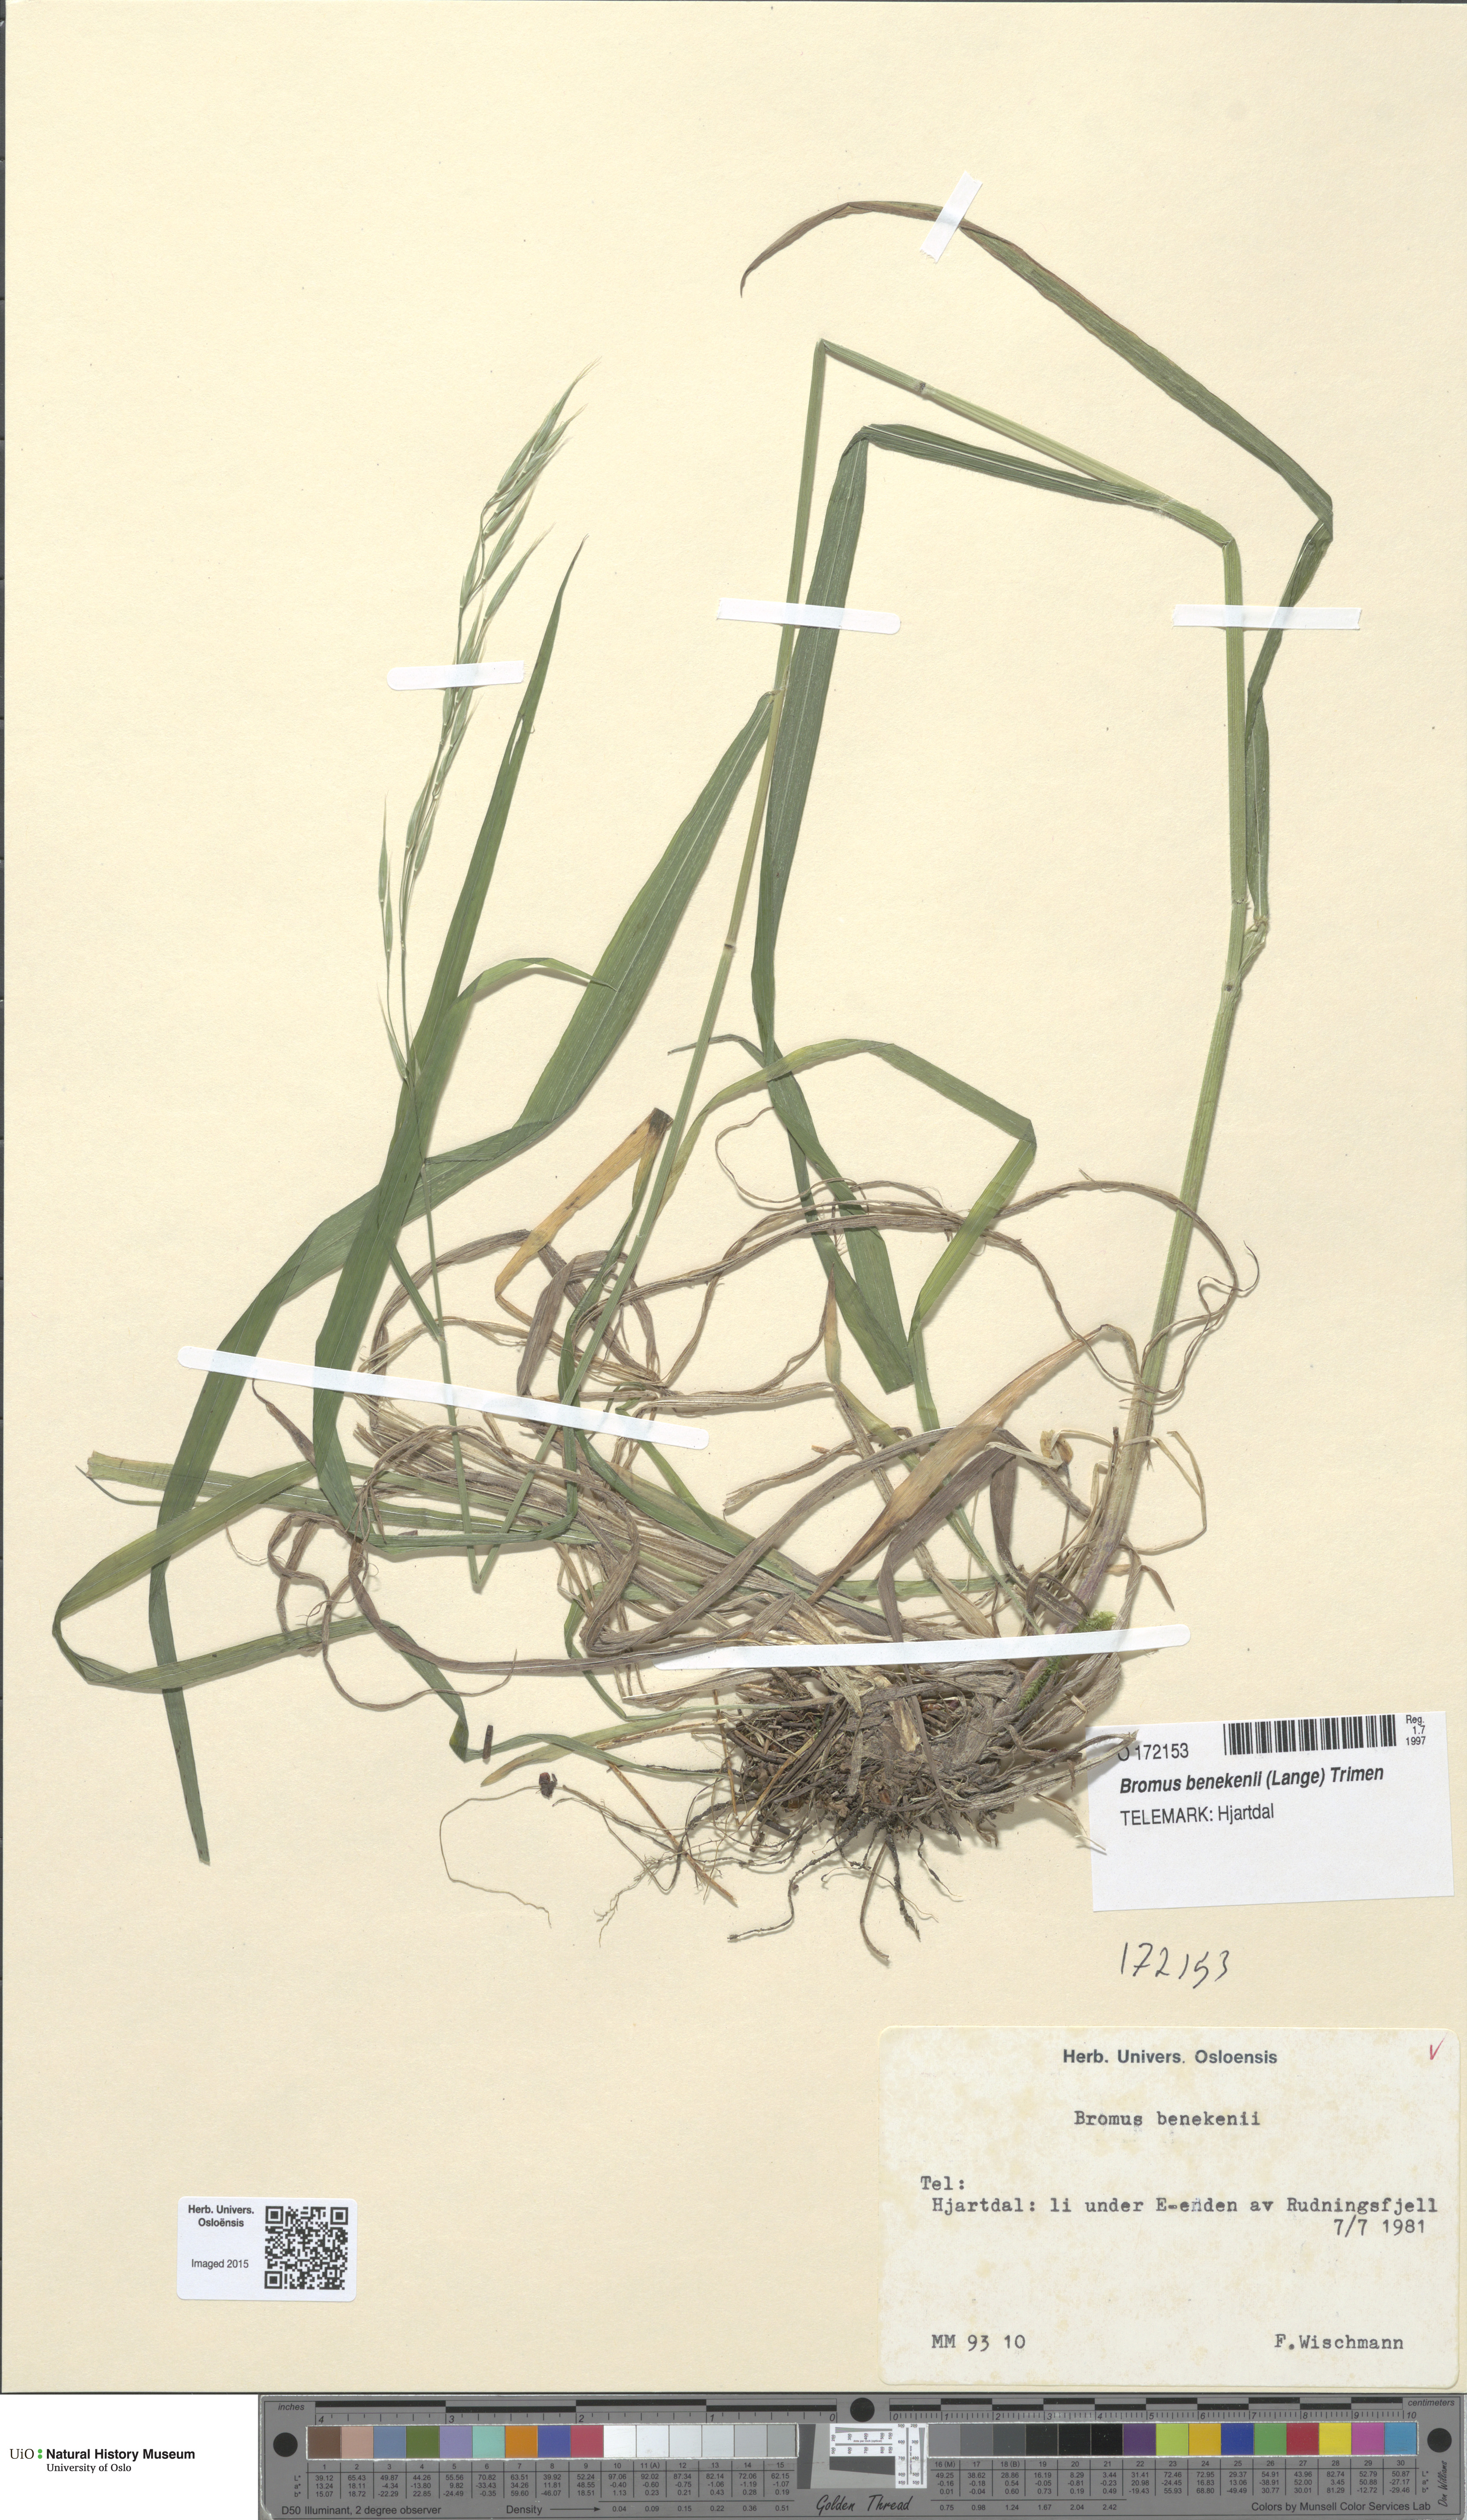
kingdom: Plantae
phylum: Tracheophyta
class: Liliopsida
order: Poales
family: Poaceae
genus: Bromus
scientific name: Bromus benekenii
